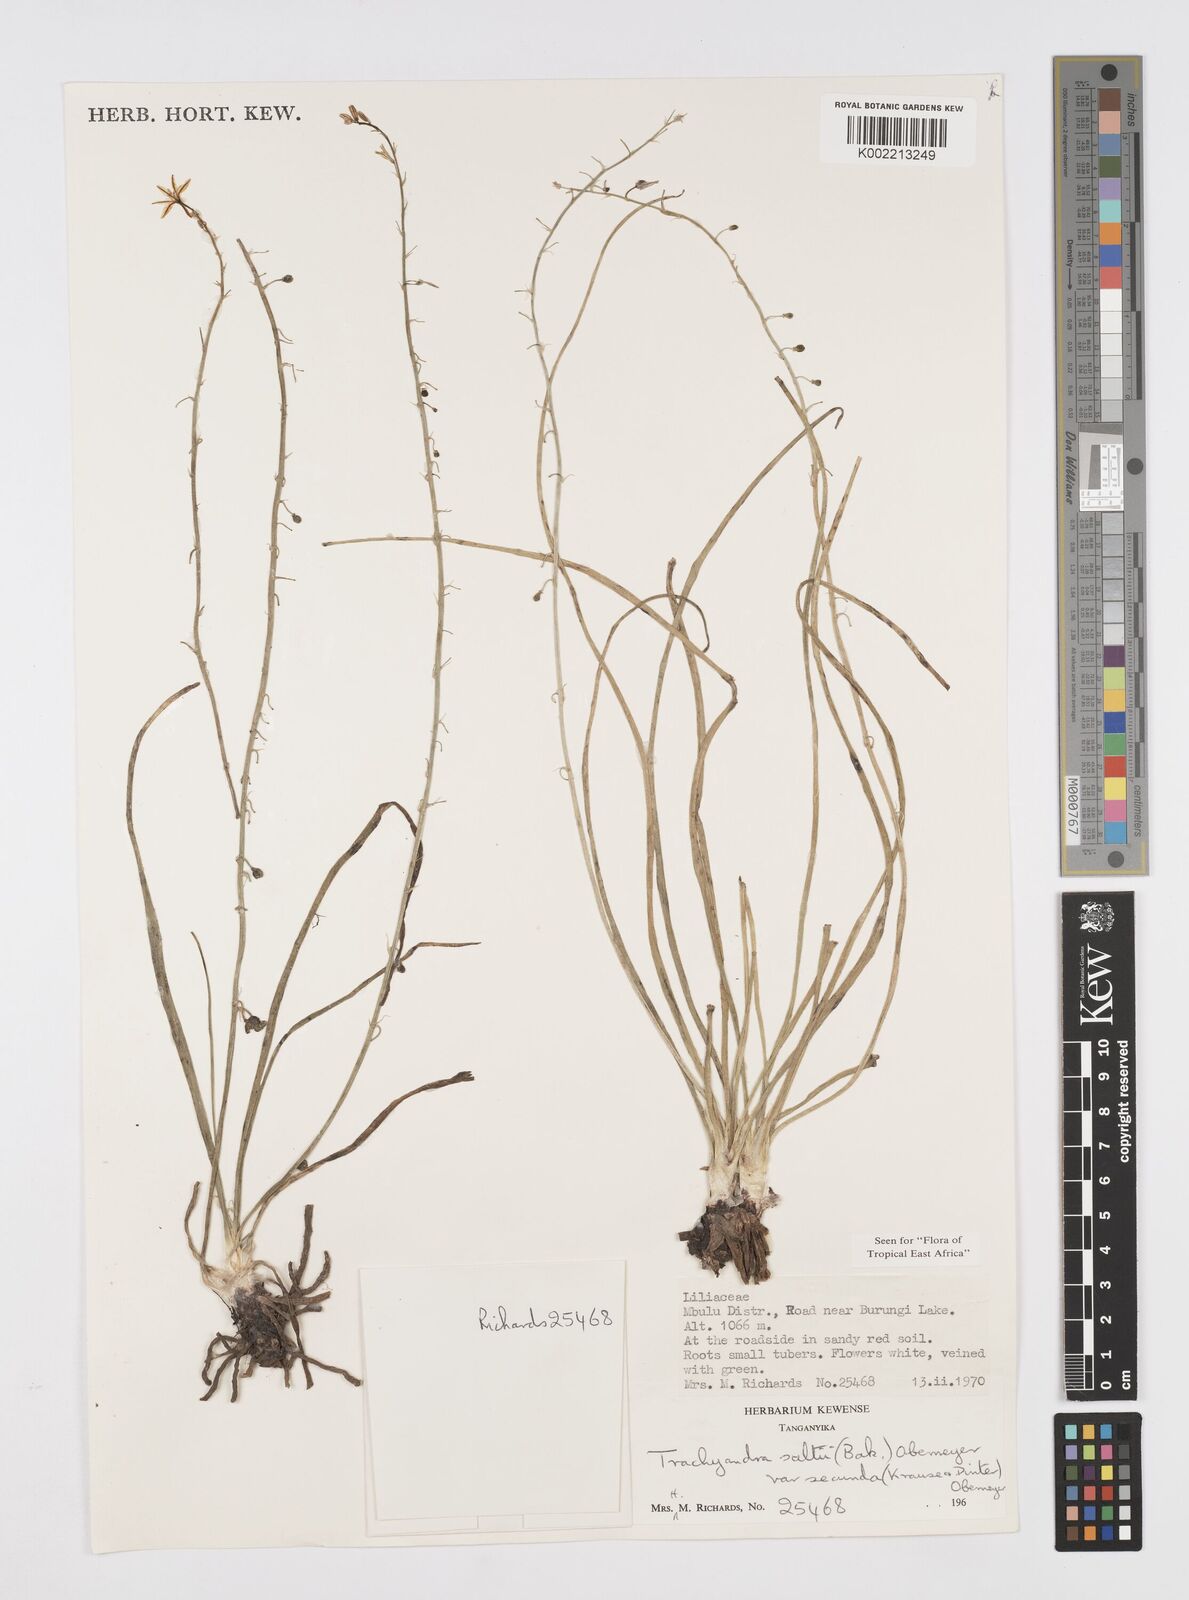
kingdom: Plantae
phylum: Tracheophyta
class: Liliopsida
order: Asparagales
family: Asphodelaceae
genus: Trachyandra
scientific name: Trachyandra saltii
